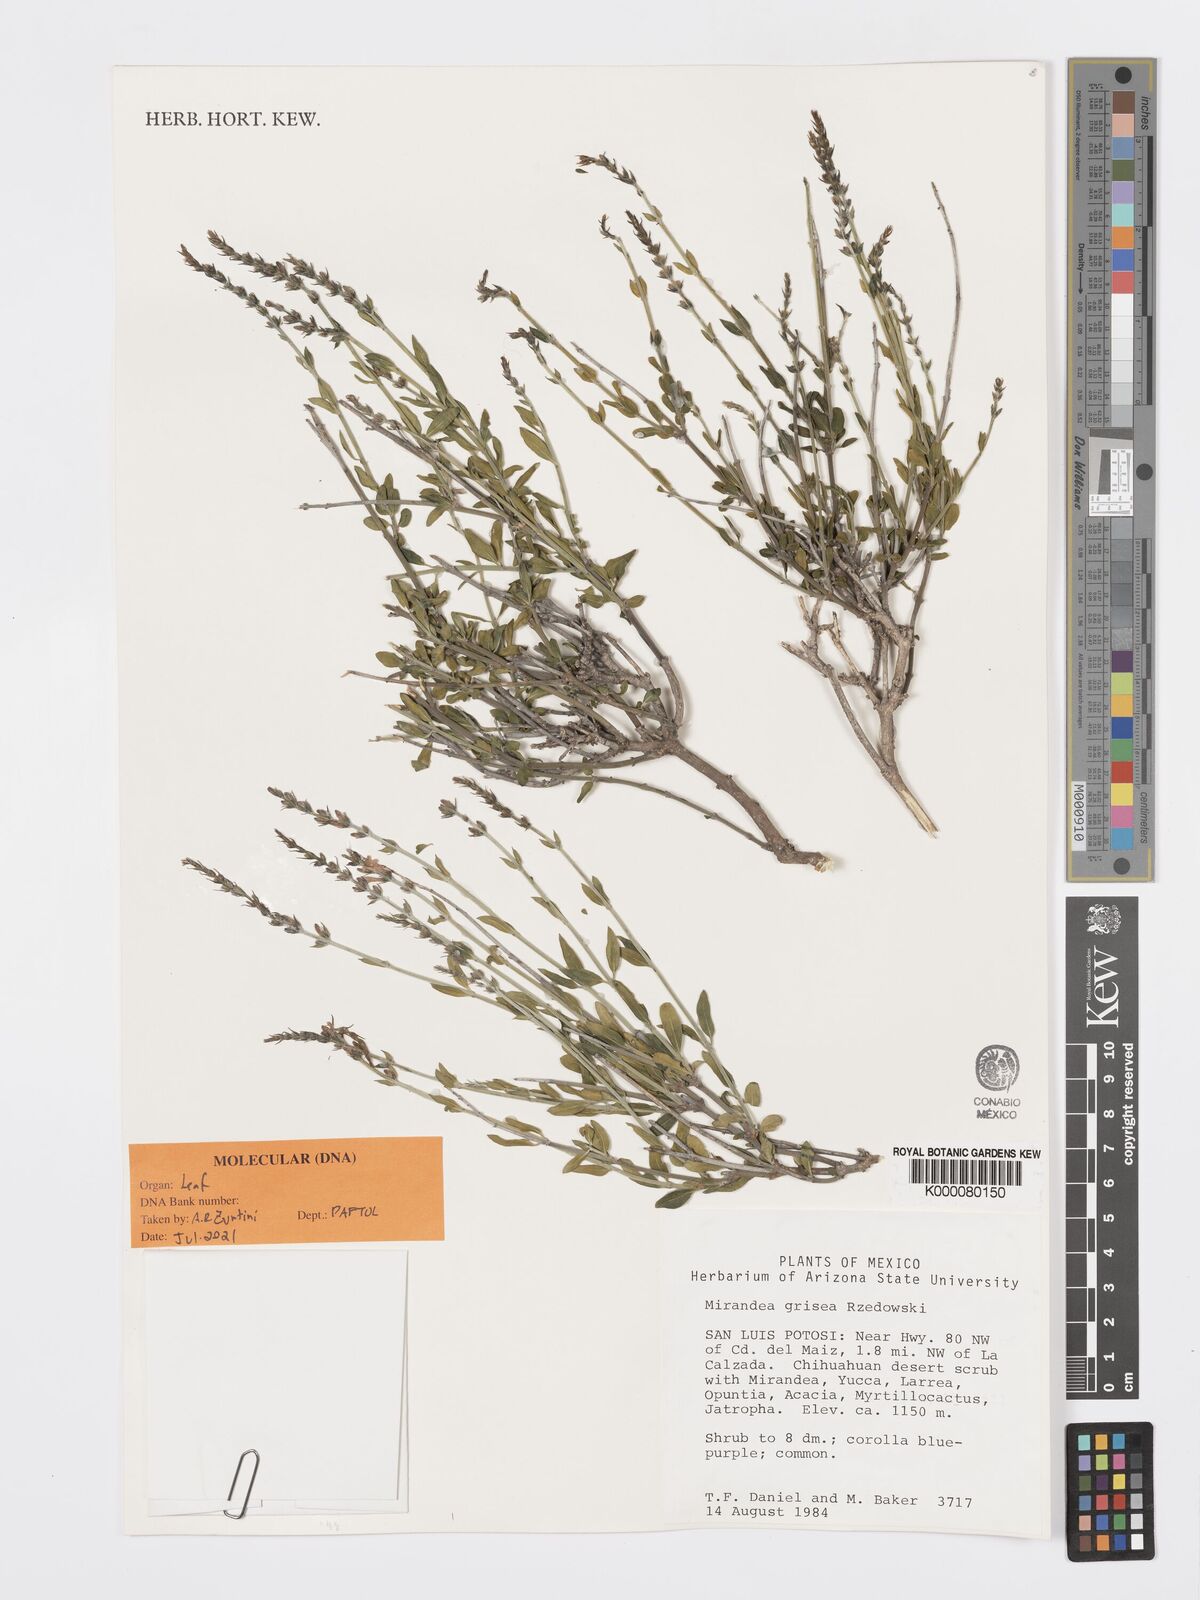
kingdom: Plantae
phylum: Tracheophyta
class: Magnoliopsida
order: Lamiales
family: Acanthaceae
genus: Mirandea
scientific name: Mirandea grisea
